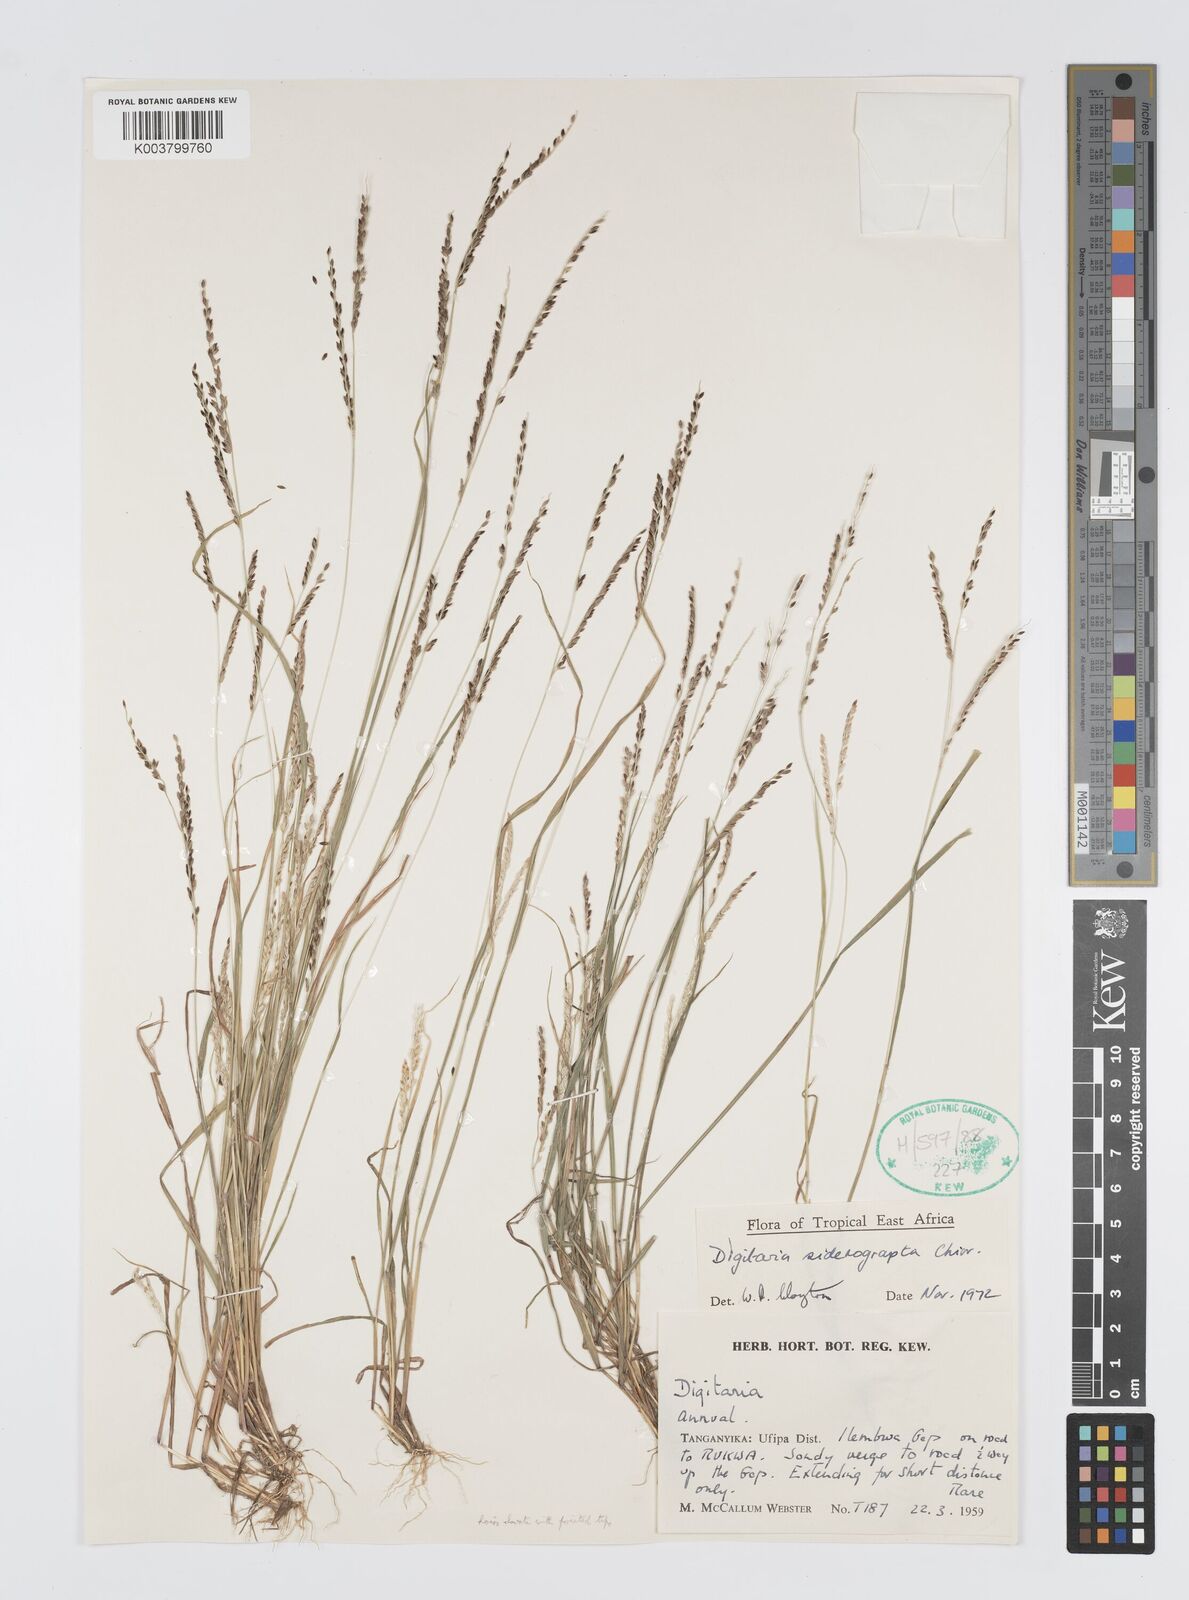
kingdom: Plantae
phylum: Tracheophyta
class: Liliopsida
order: Poales
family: Poaceae
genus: Digitaria
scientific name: Digitaria siderograpta
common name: Crab grass
